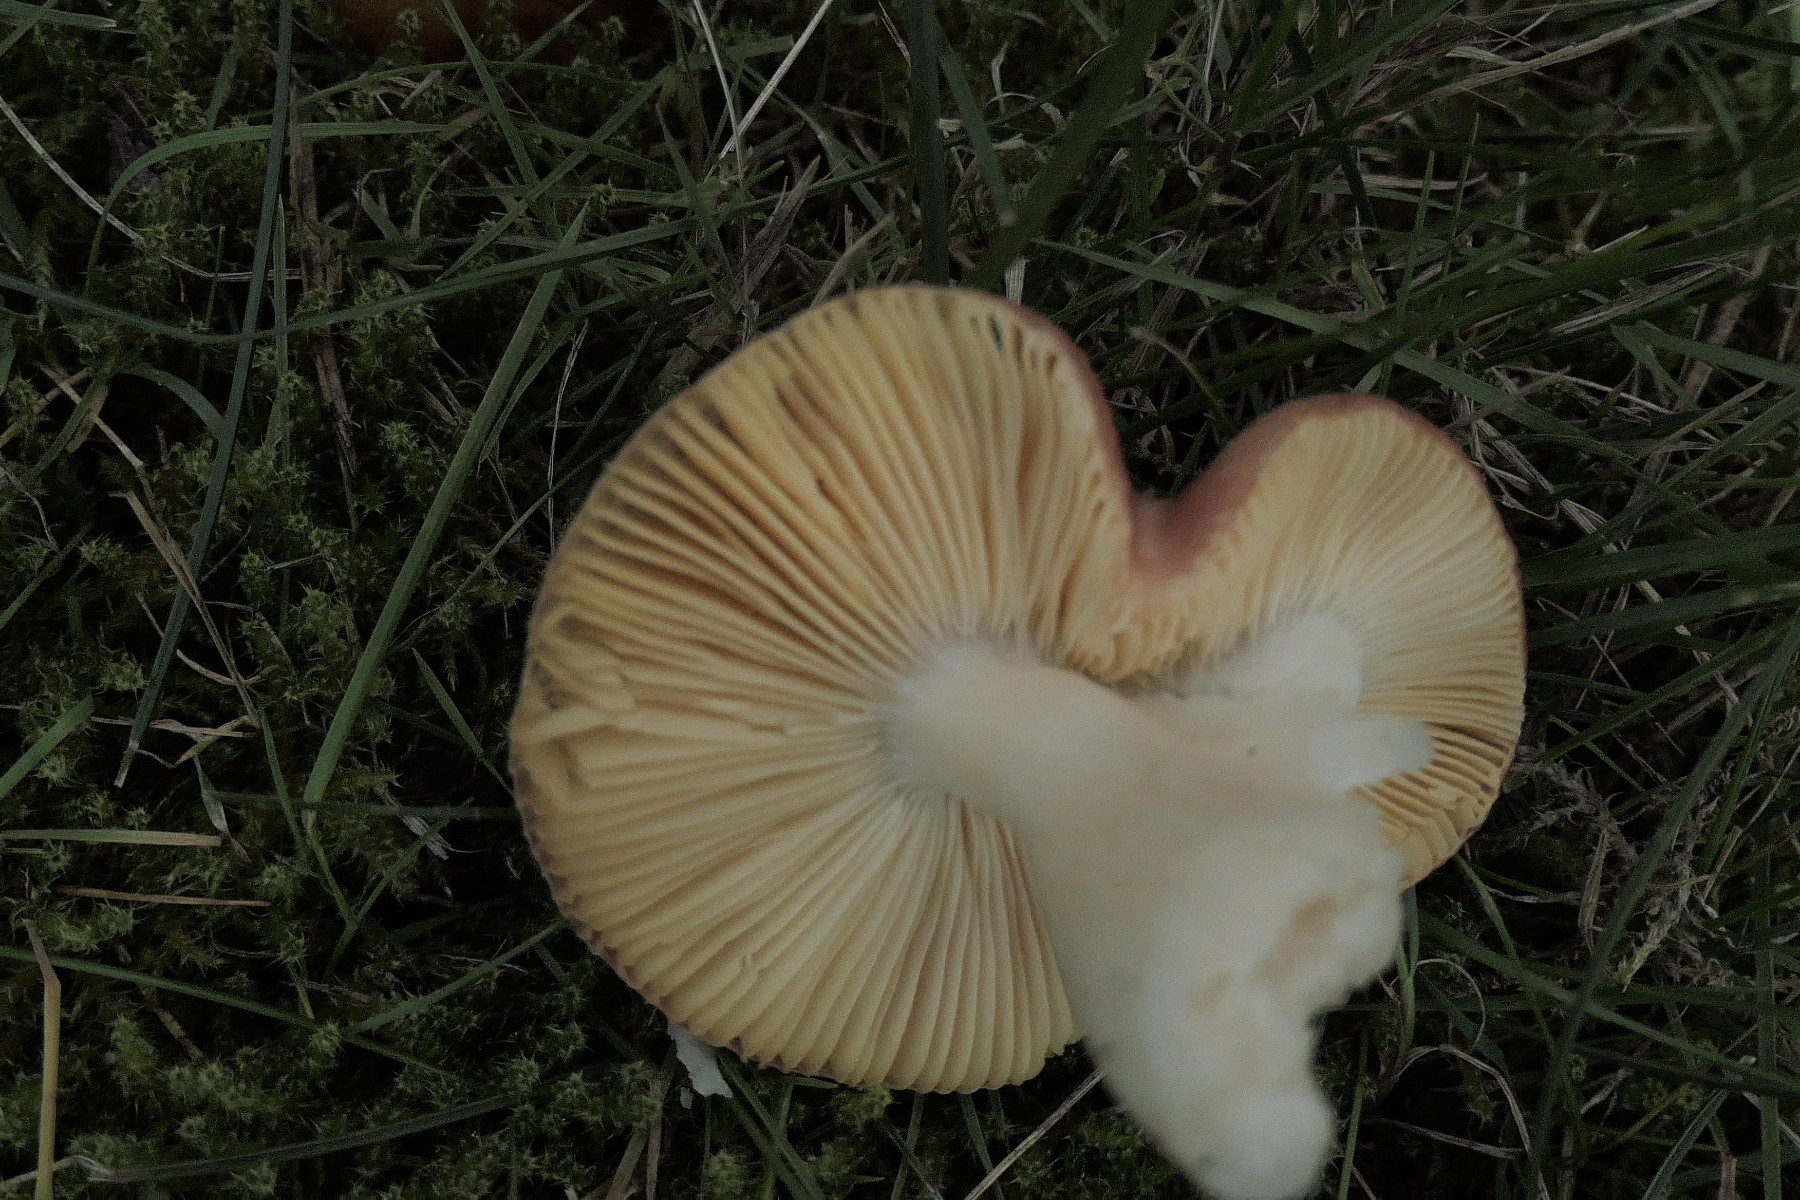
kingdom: Fungi
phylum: Basidiomycota
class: Agaricomycetes
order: Russulales
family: Russulaceae
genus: Russula
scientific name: Russula cessans
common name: fyrre-skørhat
